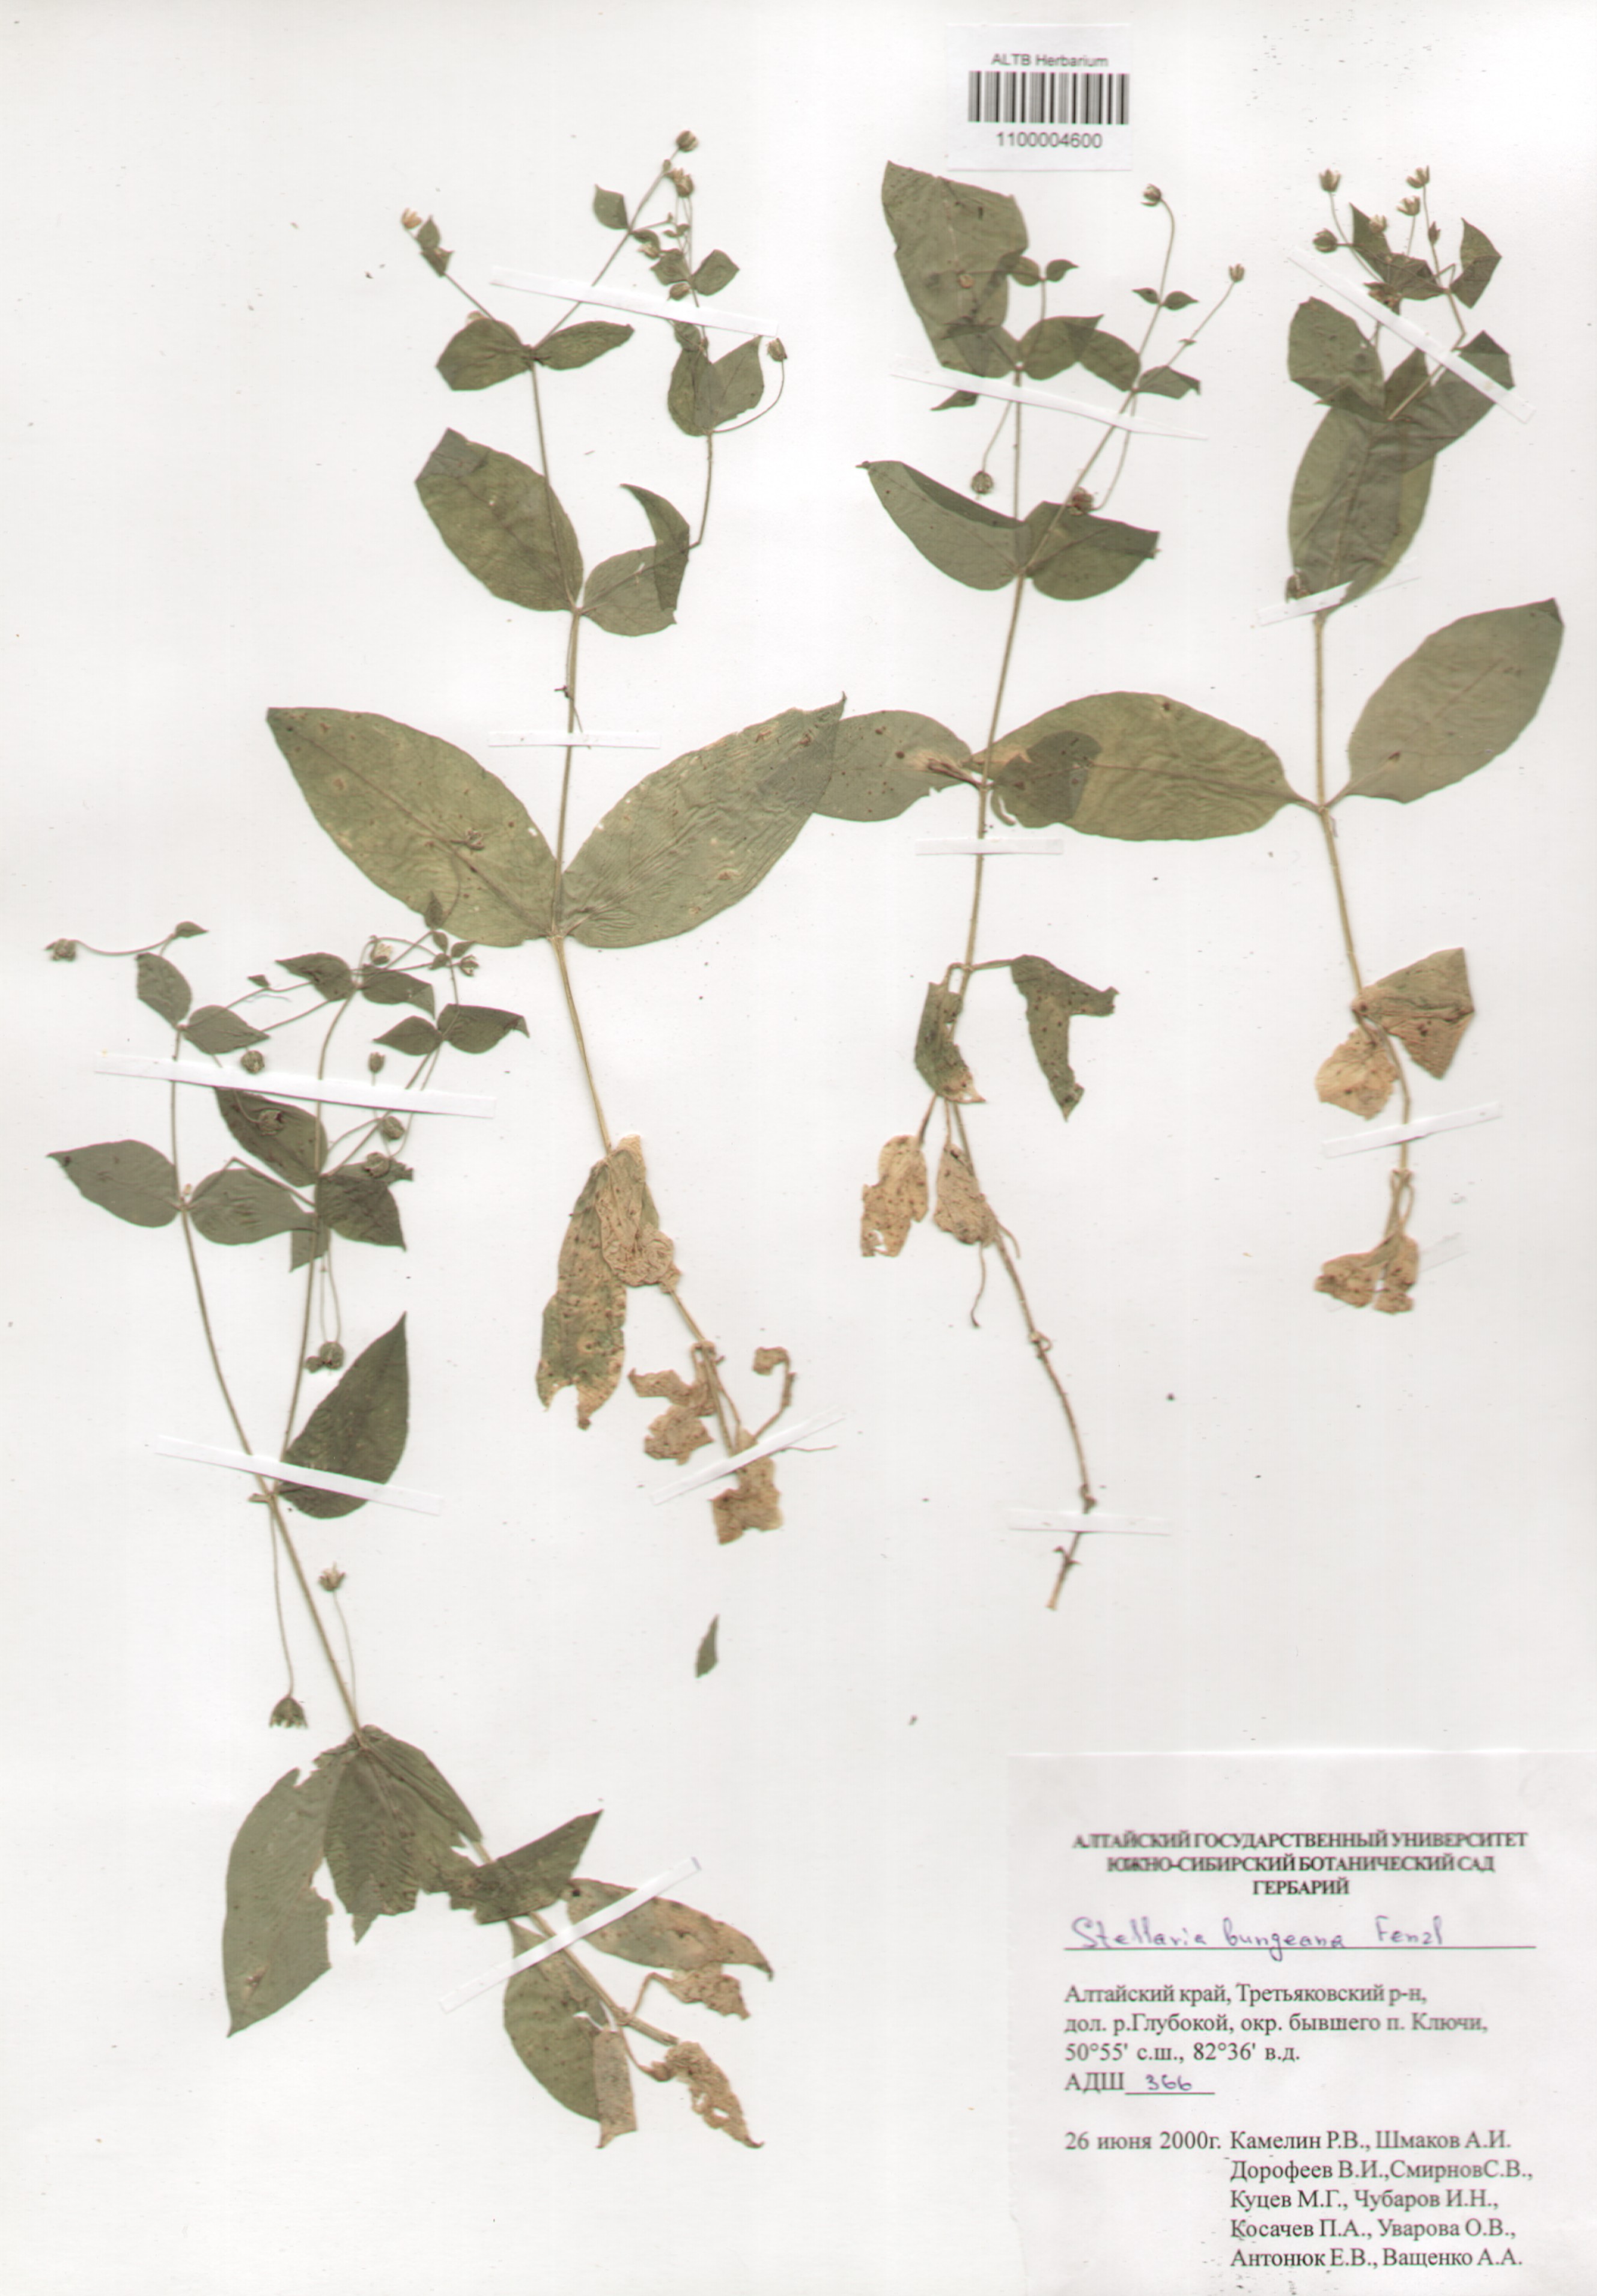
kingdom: Plantae
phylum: Tracheophyta
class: Magnoliopsida
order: Caryophyllales
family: Caryophyllaceae
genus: Stellaria
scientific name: Stellaria bungeana
